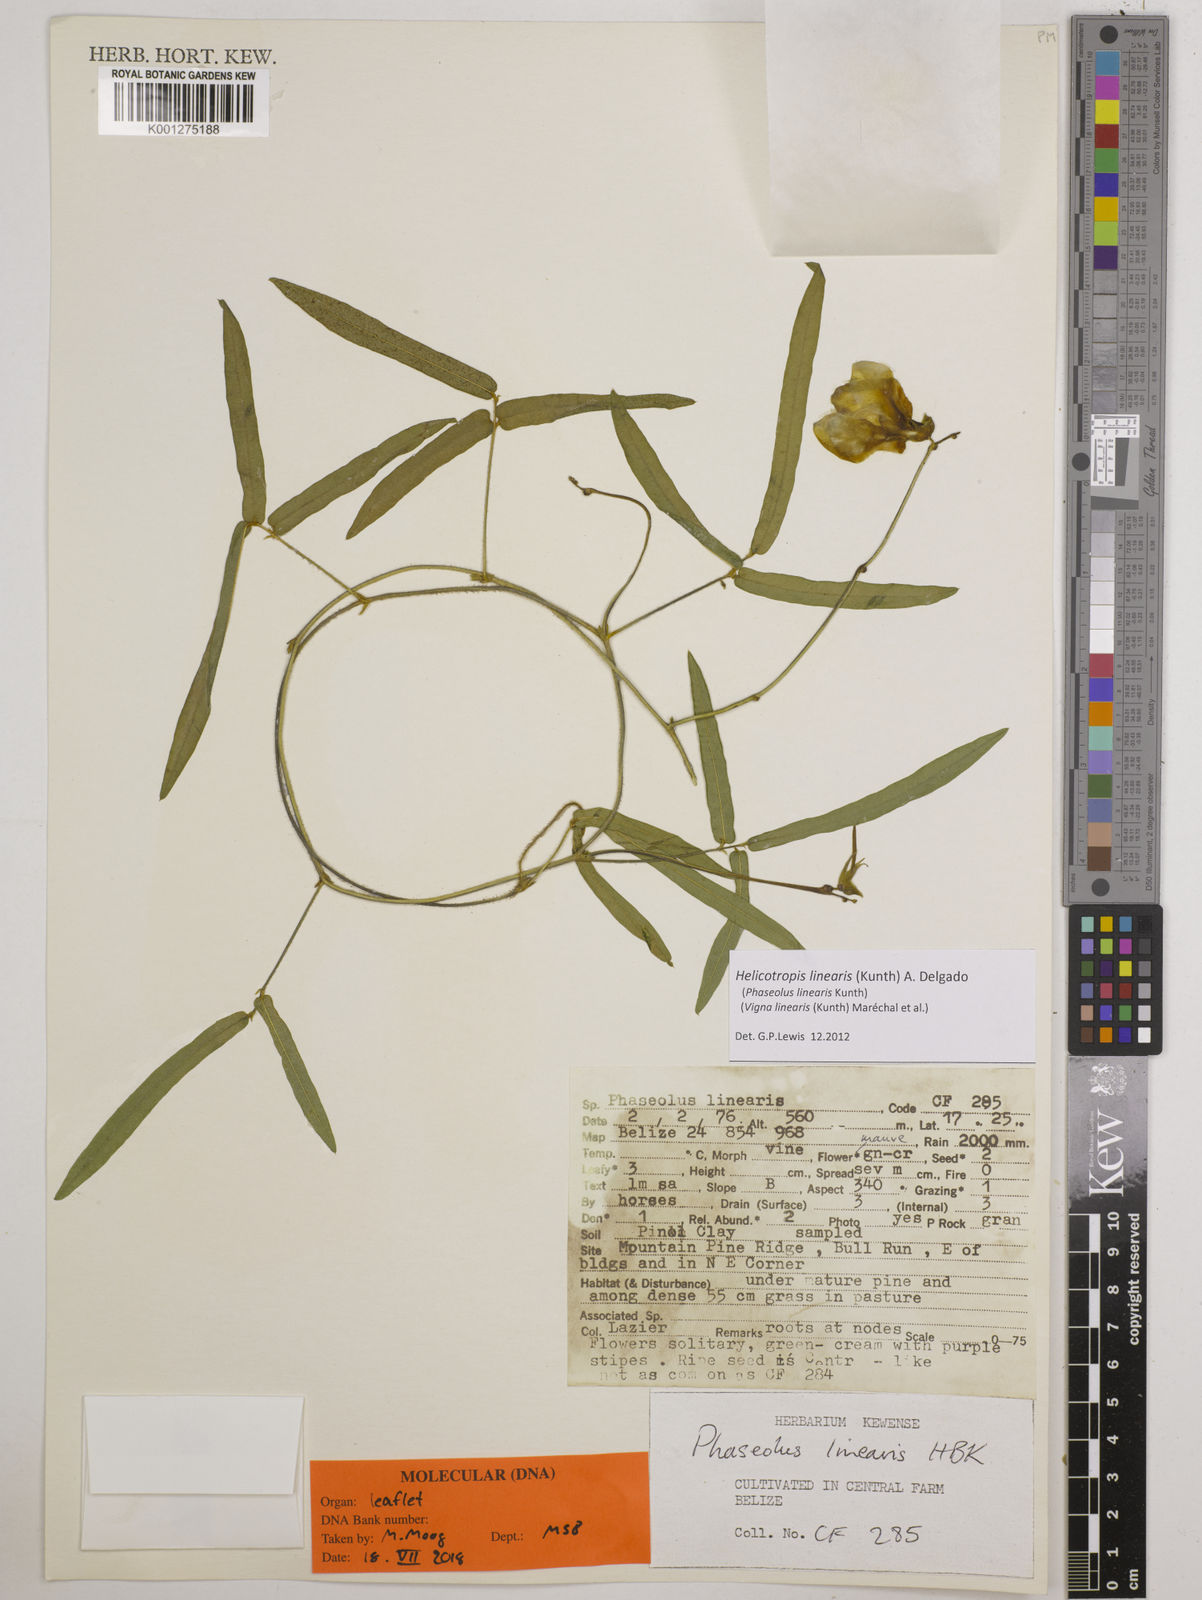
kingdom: Plantae
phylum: Tracheophyta
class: Magnoliopsida
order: Malvales
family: Thymelaeaceae
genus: Diarthron
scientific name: Diarthron lessertii
